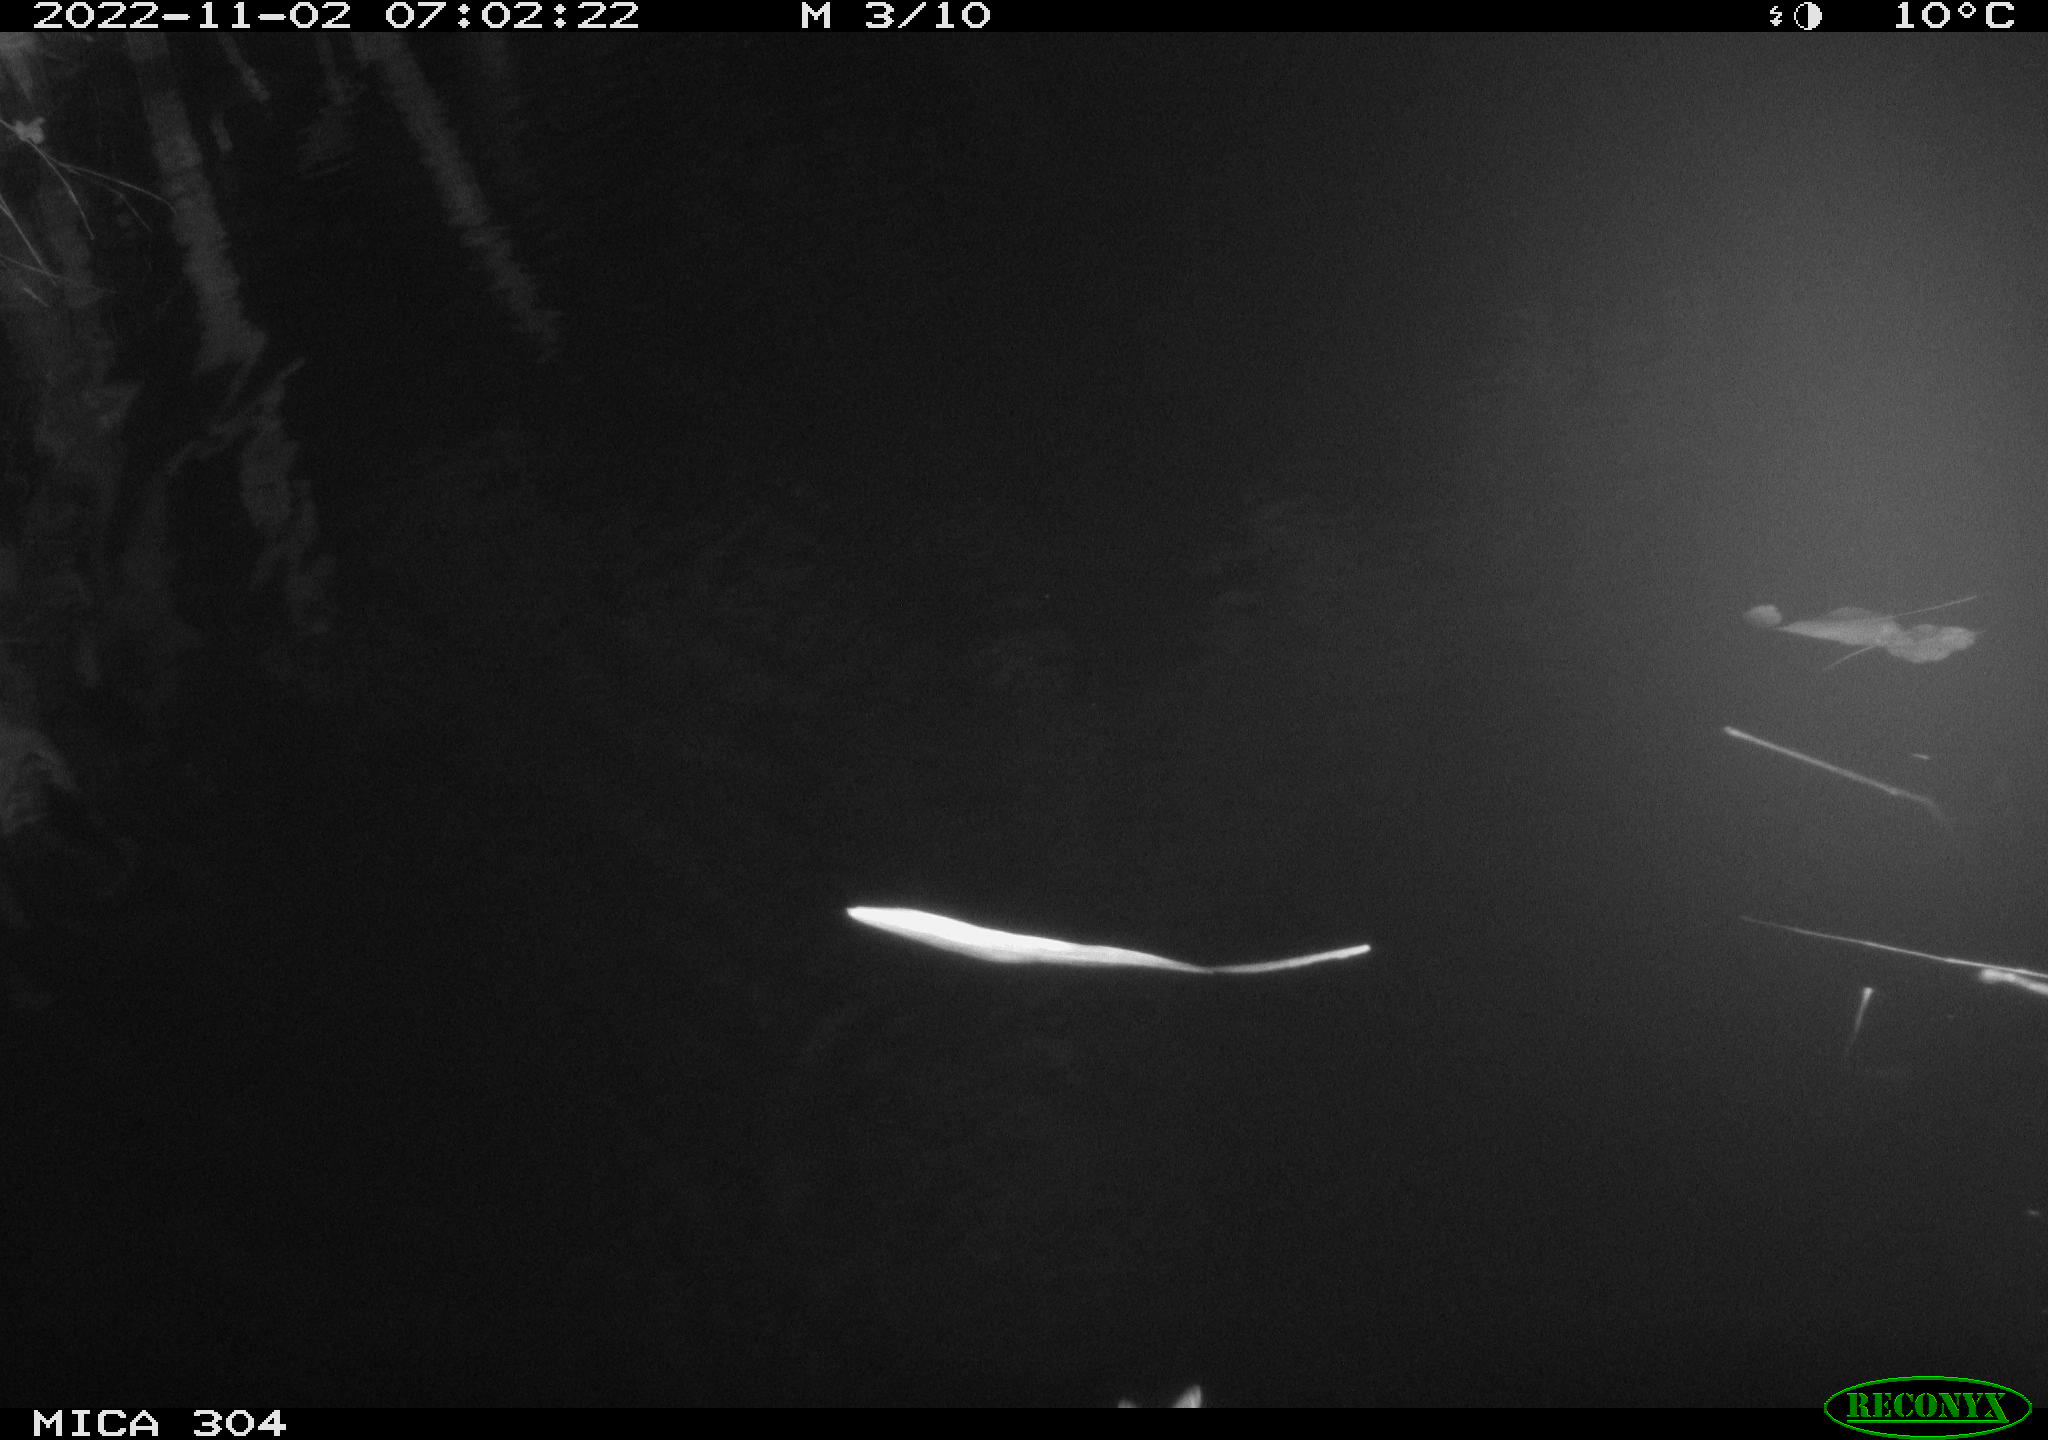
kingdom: Animalia
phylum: Chordata
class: Aves
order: Anseriformes
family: Anatidae
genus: Anas
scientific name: Anas
